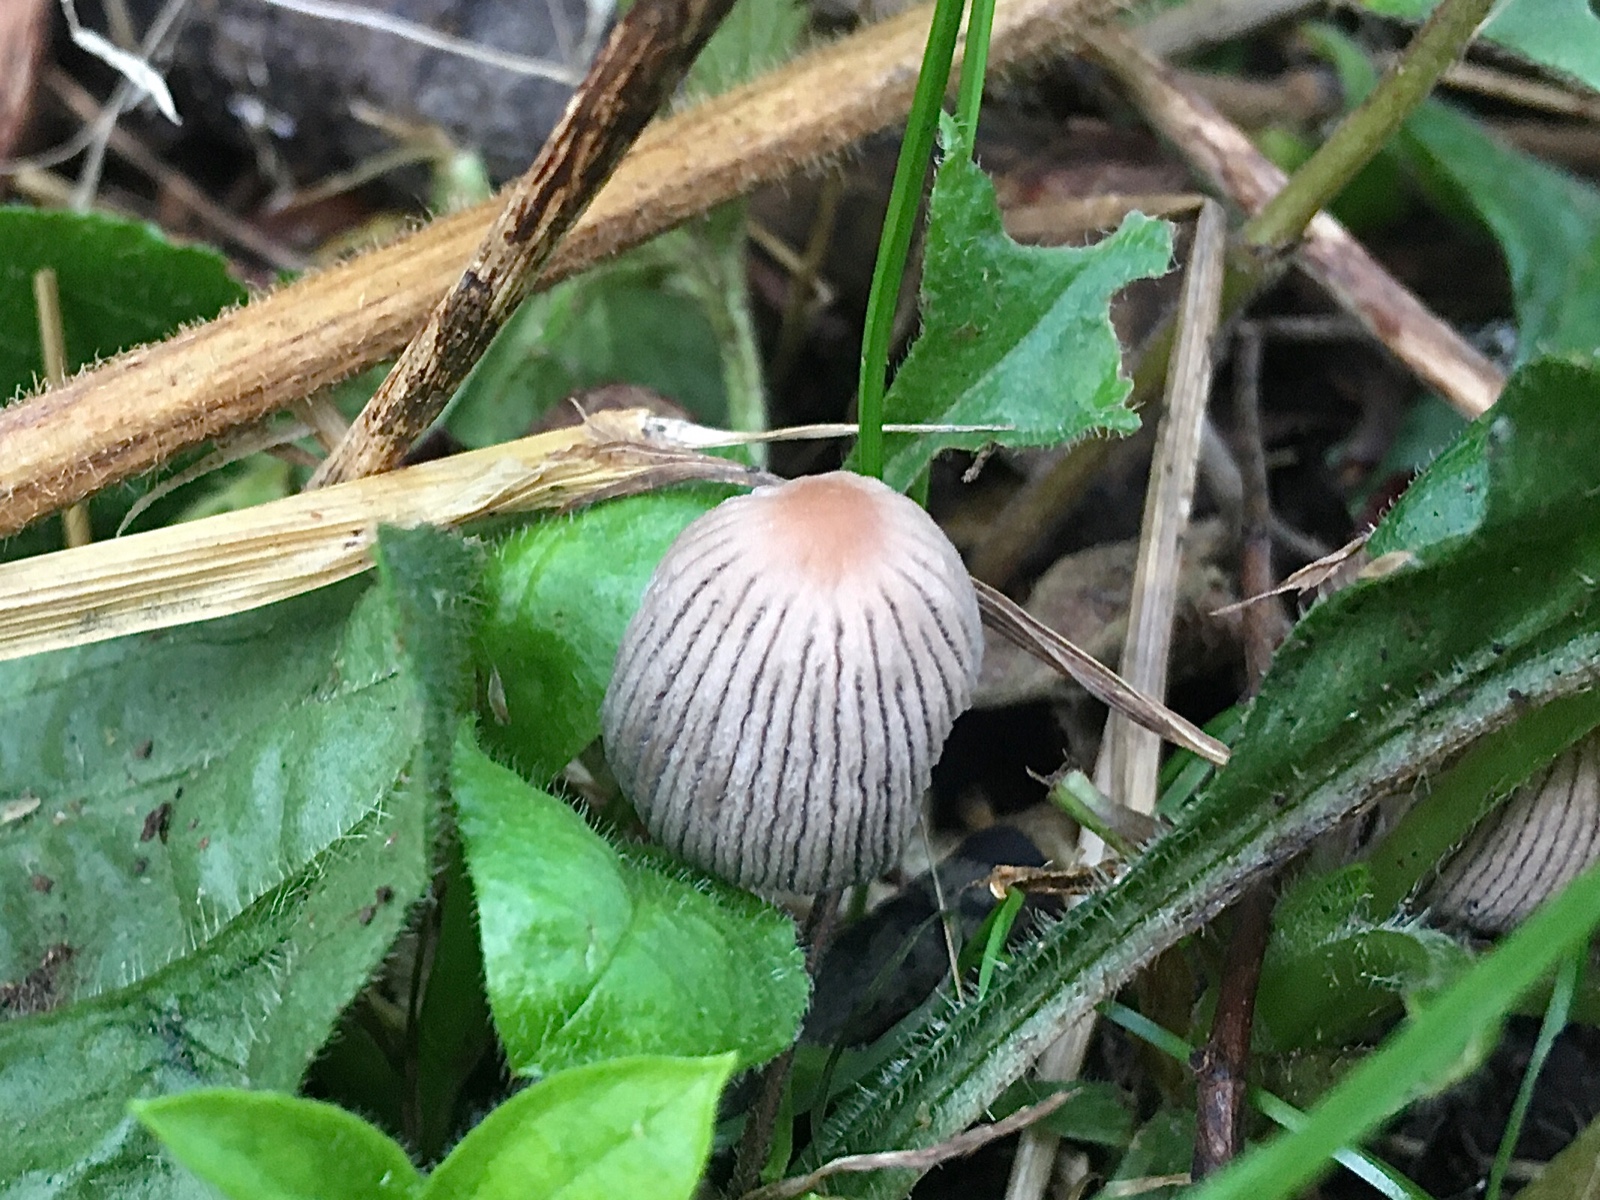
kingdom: Fungi
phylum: Basidiomycota
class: Agaricomycetes
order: Agaricales
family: Psathyrellaceae
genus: Parasola
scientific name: Parasola
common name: hjulhat
